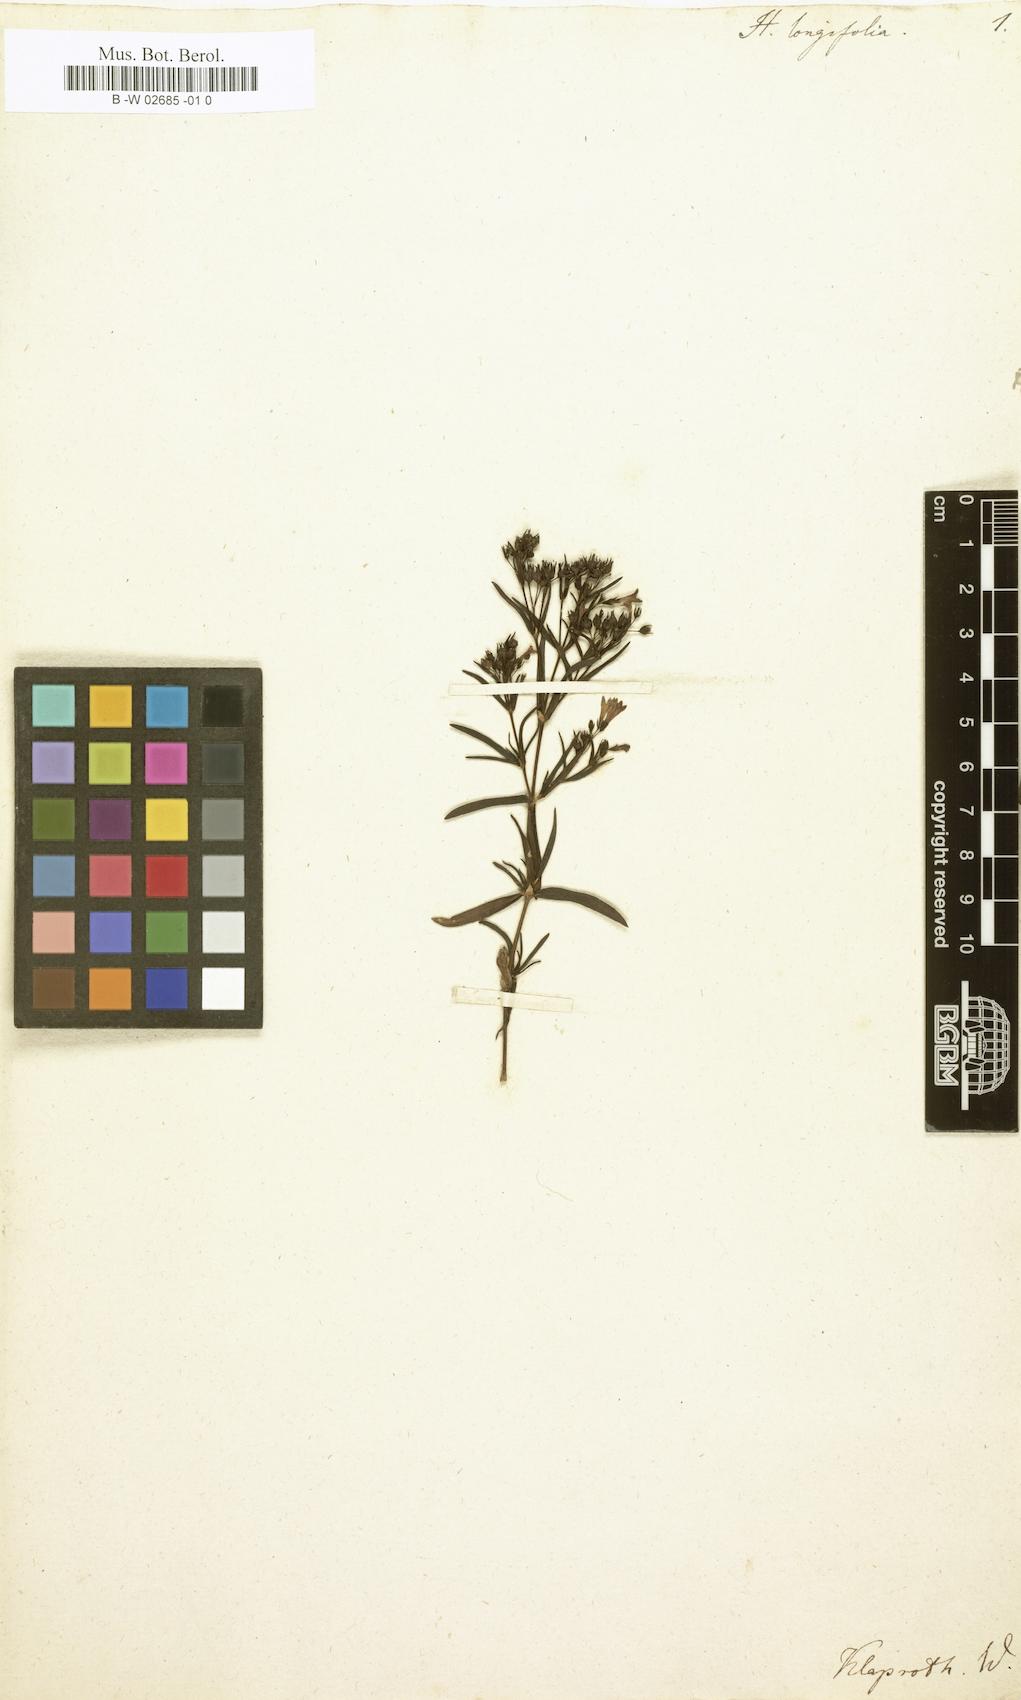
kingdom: Plantae
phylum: Tracheophyta
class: Magnoliopsida
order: Gentianales
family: Rubiaceae
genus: Houstonia
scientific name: Houstonia longifolia
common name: Long-leaved bluets
